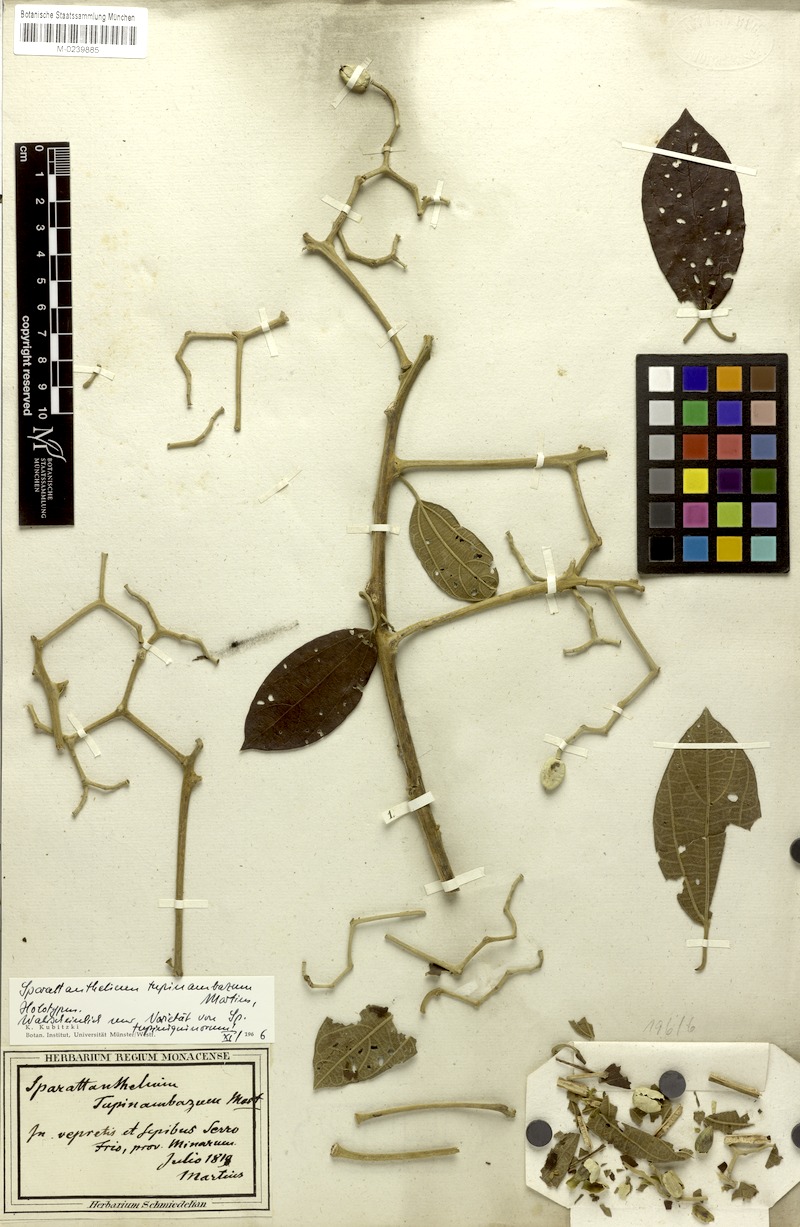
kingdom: Plantae
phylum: Tracheophyta
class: Magnoliopsida
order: Laurales
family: Hernandiaceae
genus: Sparattanthelium
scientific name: Sparattanthelium botocudorum
